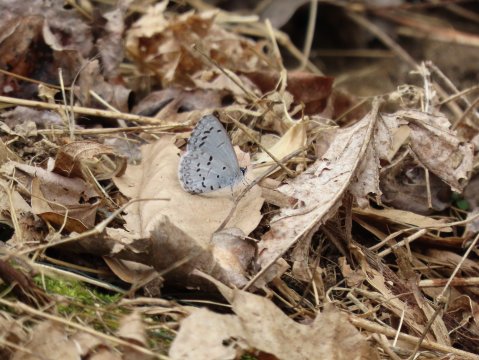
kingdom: Animalia
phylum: Arthropoda
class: Insecta
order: Lepidoptera
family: Lycaenidae
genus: Celastrina
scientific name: Celastrina
